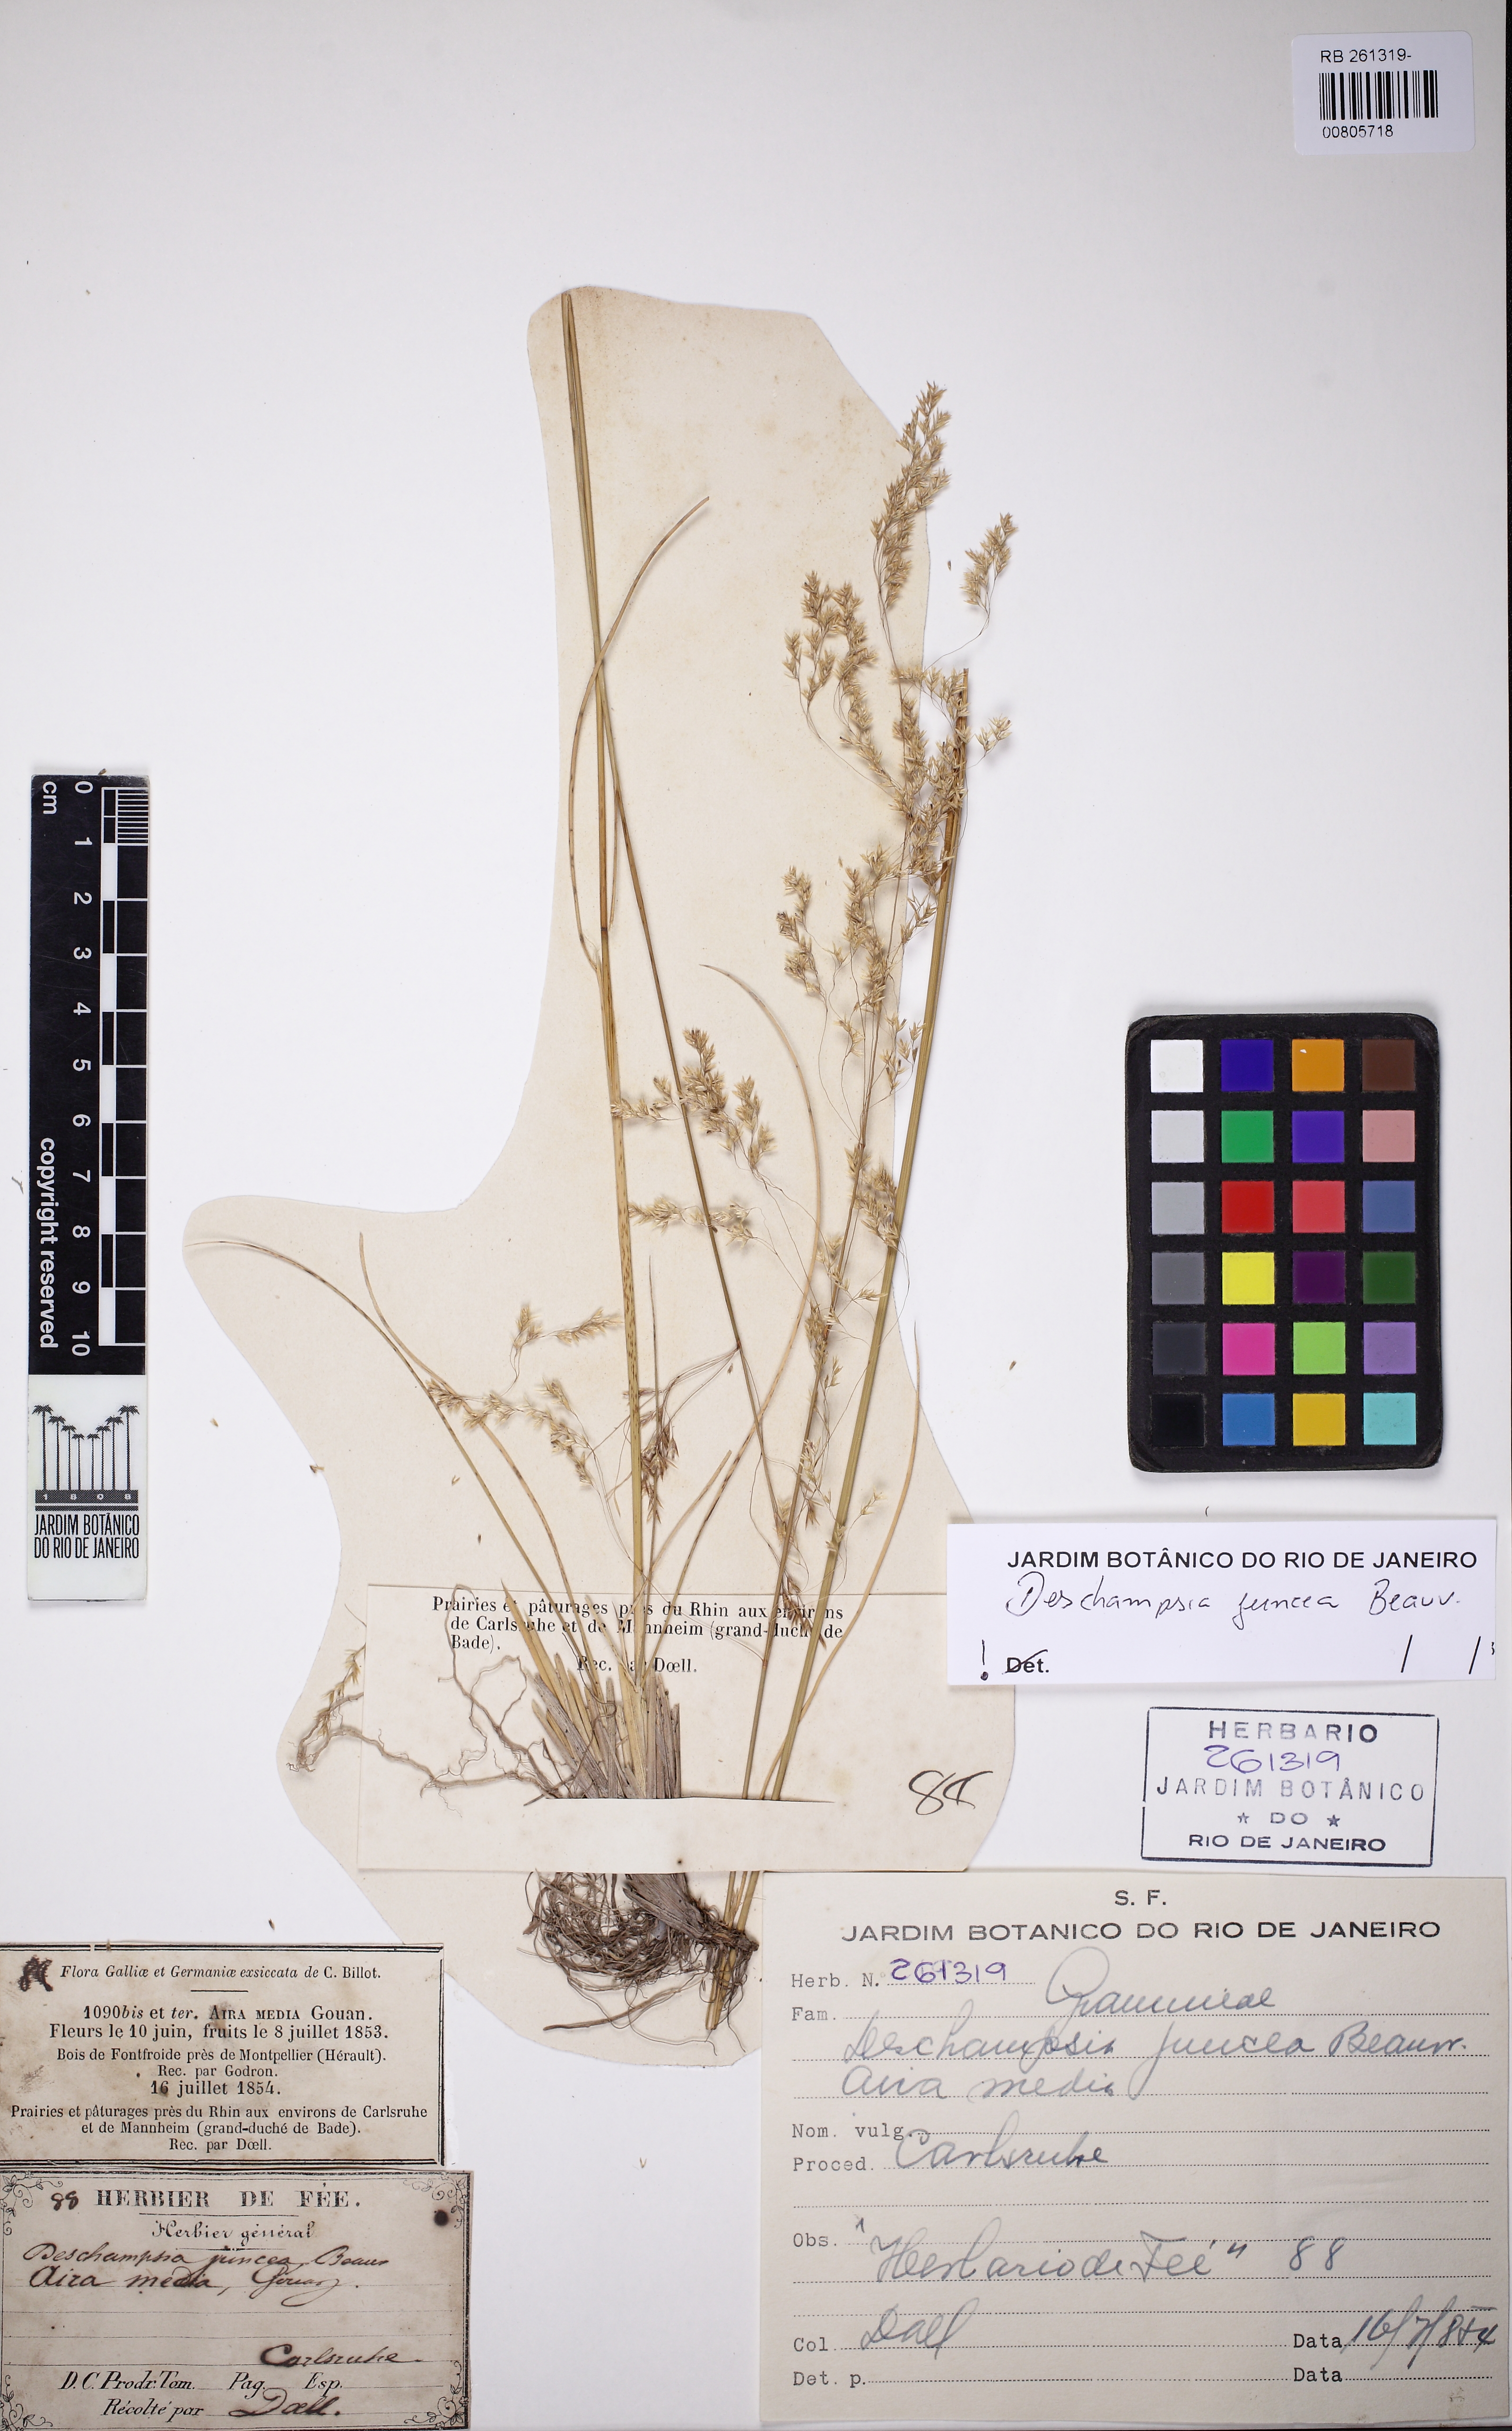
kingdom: Plantae
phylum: Tracheophyta
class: Liliopsida
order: Poales
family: Poaceae
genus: Deschampsia
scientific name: Deschampsia
